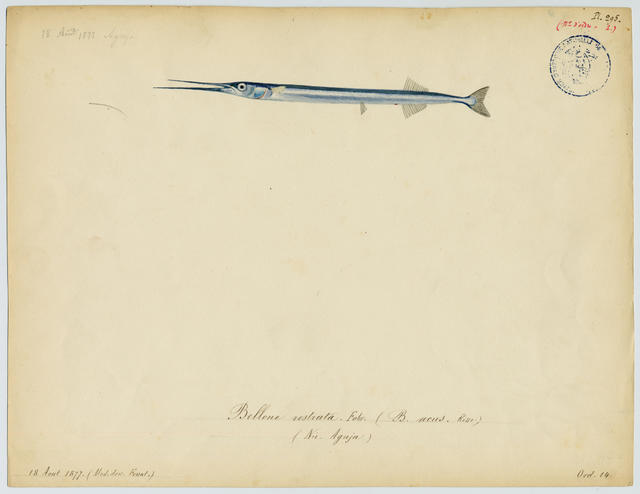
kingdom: Animalia
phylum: Chordata
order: Beloniformes
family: Belonidae
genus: Belone
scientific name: Belone belone
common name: Garfish
